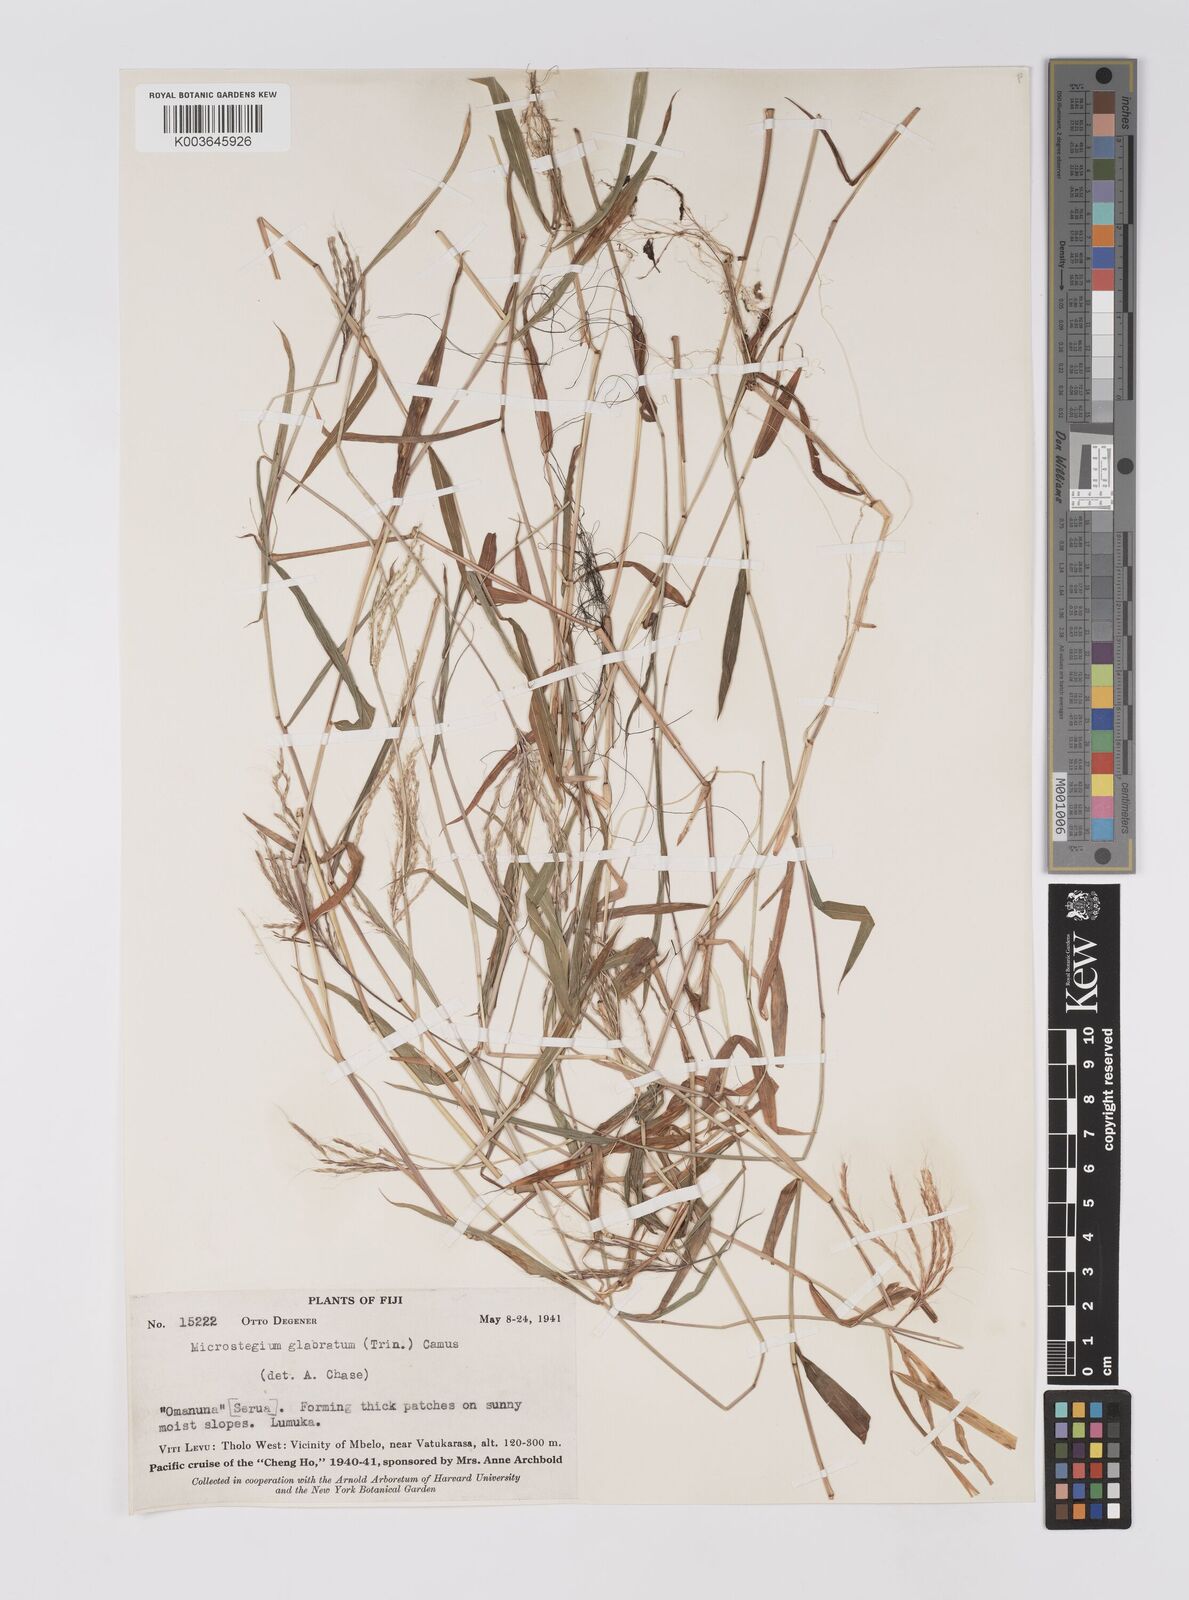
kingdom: Plantae
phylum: Tracheophyta
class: Liliopsida
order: Poales
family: Poaceae
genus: Microstegium
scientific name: Microstegium glabratum
